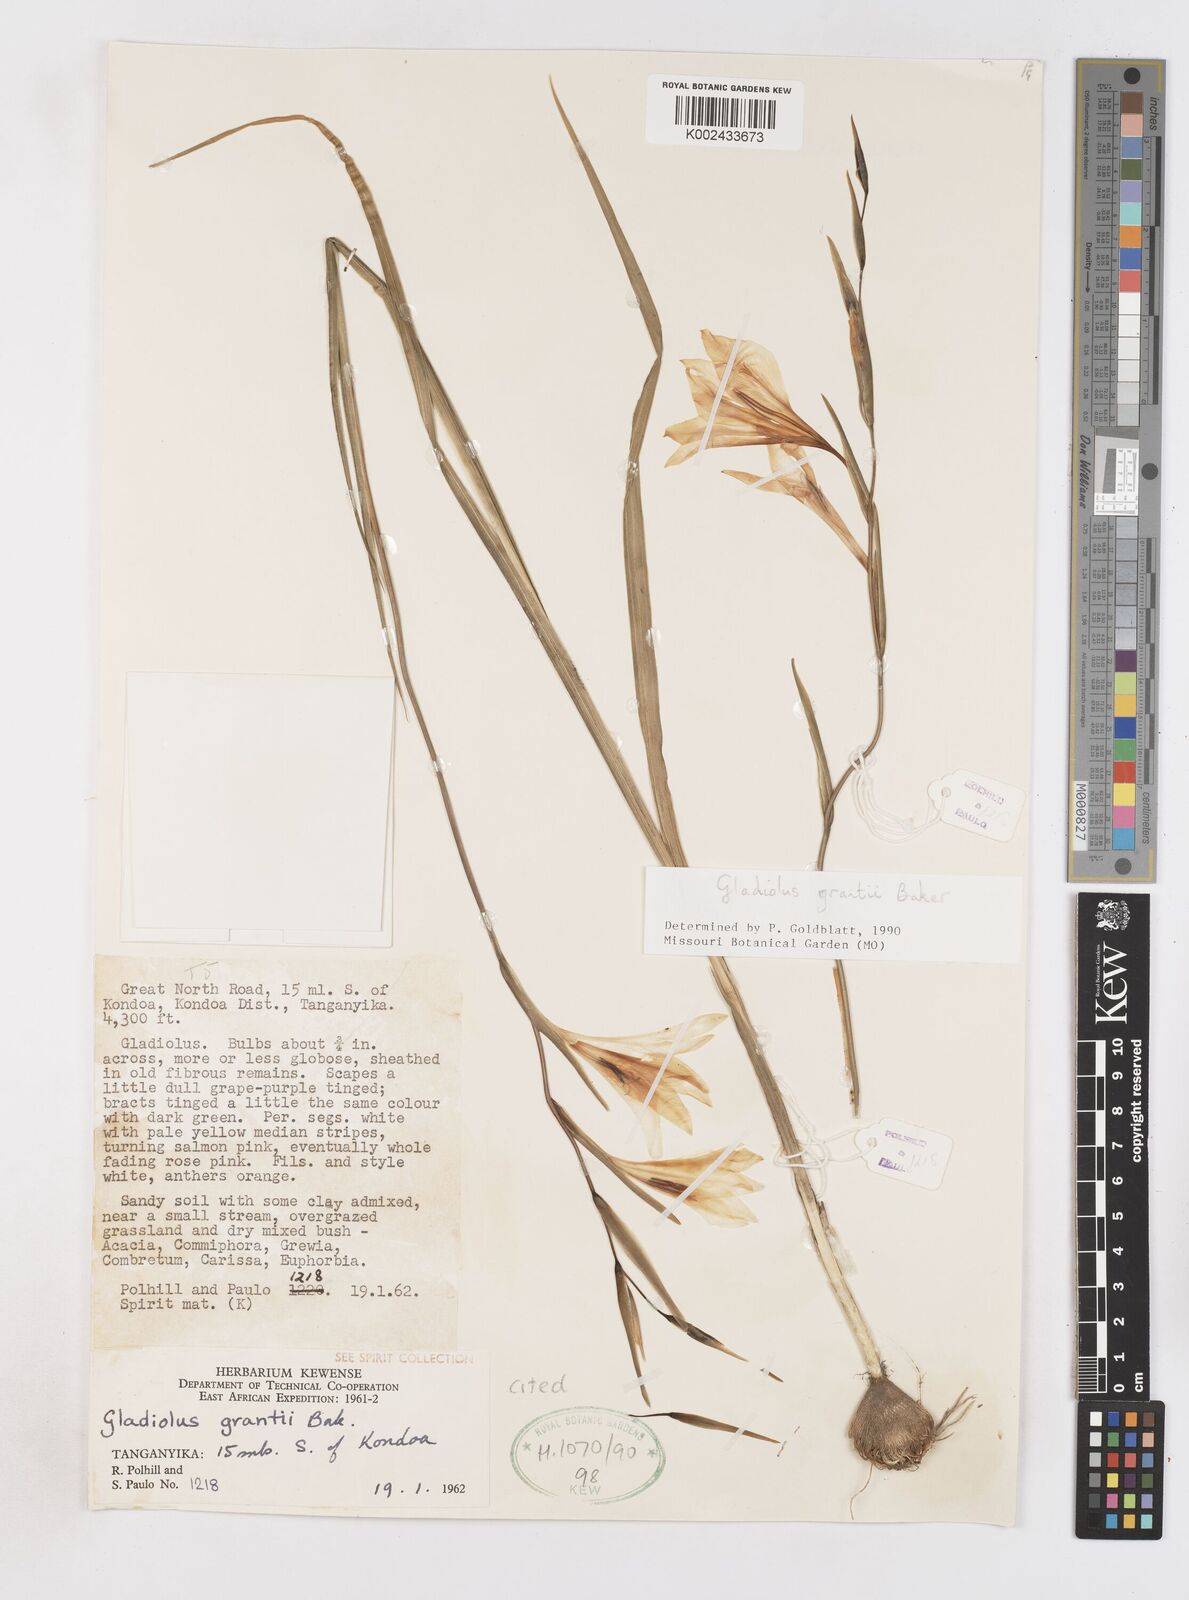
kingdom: Plantae
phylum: Tracheophyta
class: Liliopsida
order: Asparagales
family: Iridaceae
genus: Gladiolus
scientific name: Gladiolus grantii
